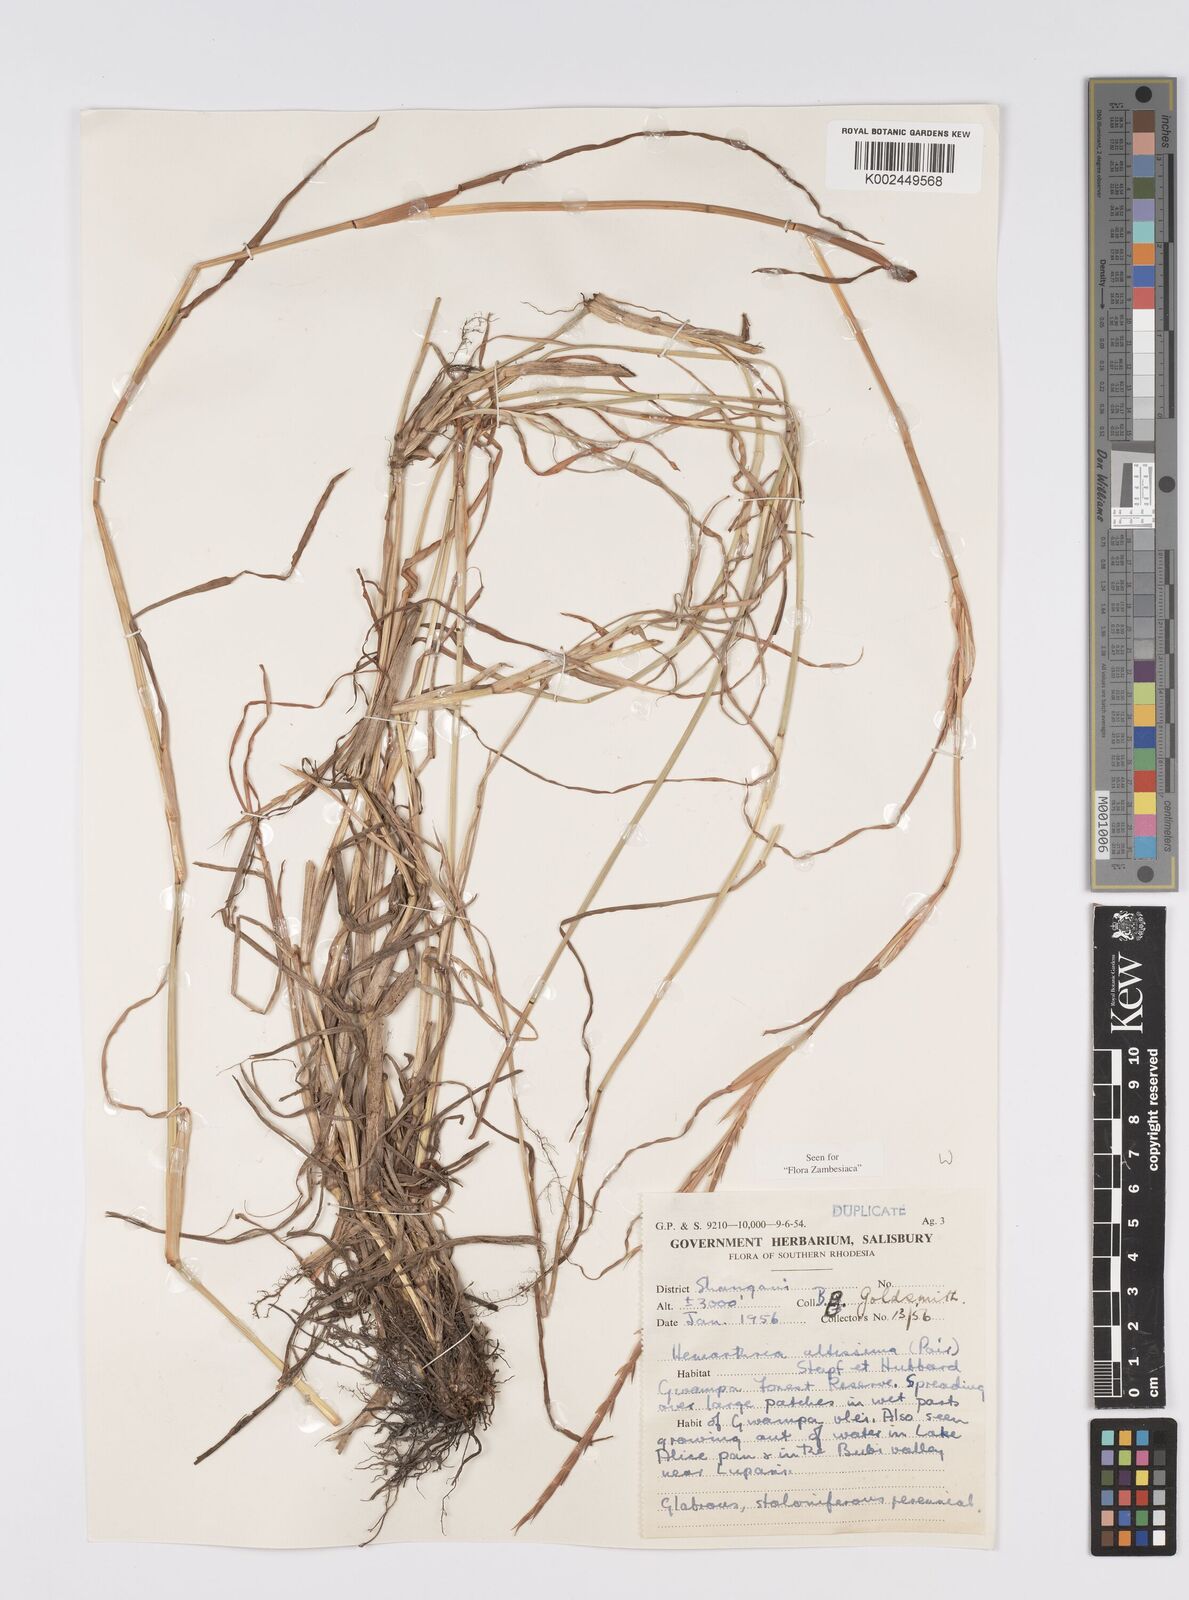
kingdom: Plantae
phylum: Tracheophyta
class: Liliopsida
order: Poales
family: Poaceae
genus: Hemarthria
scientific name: Hemarthria altissima
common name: African jointgrass
